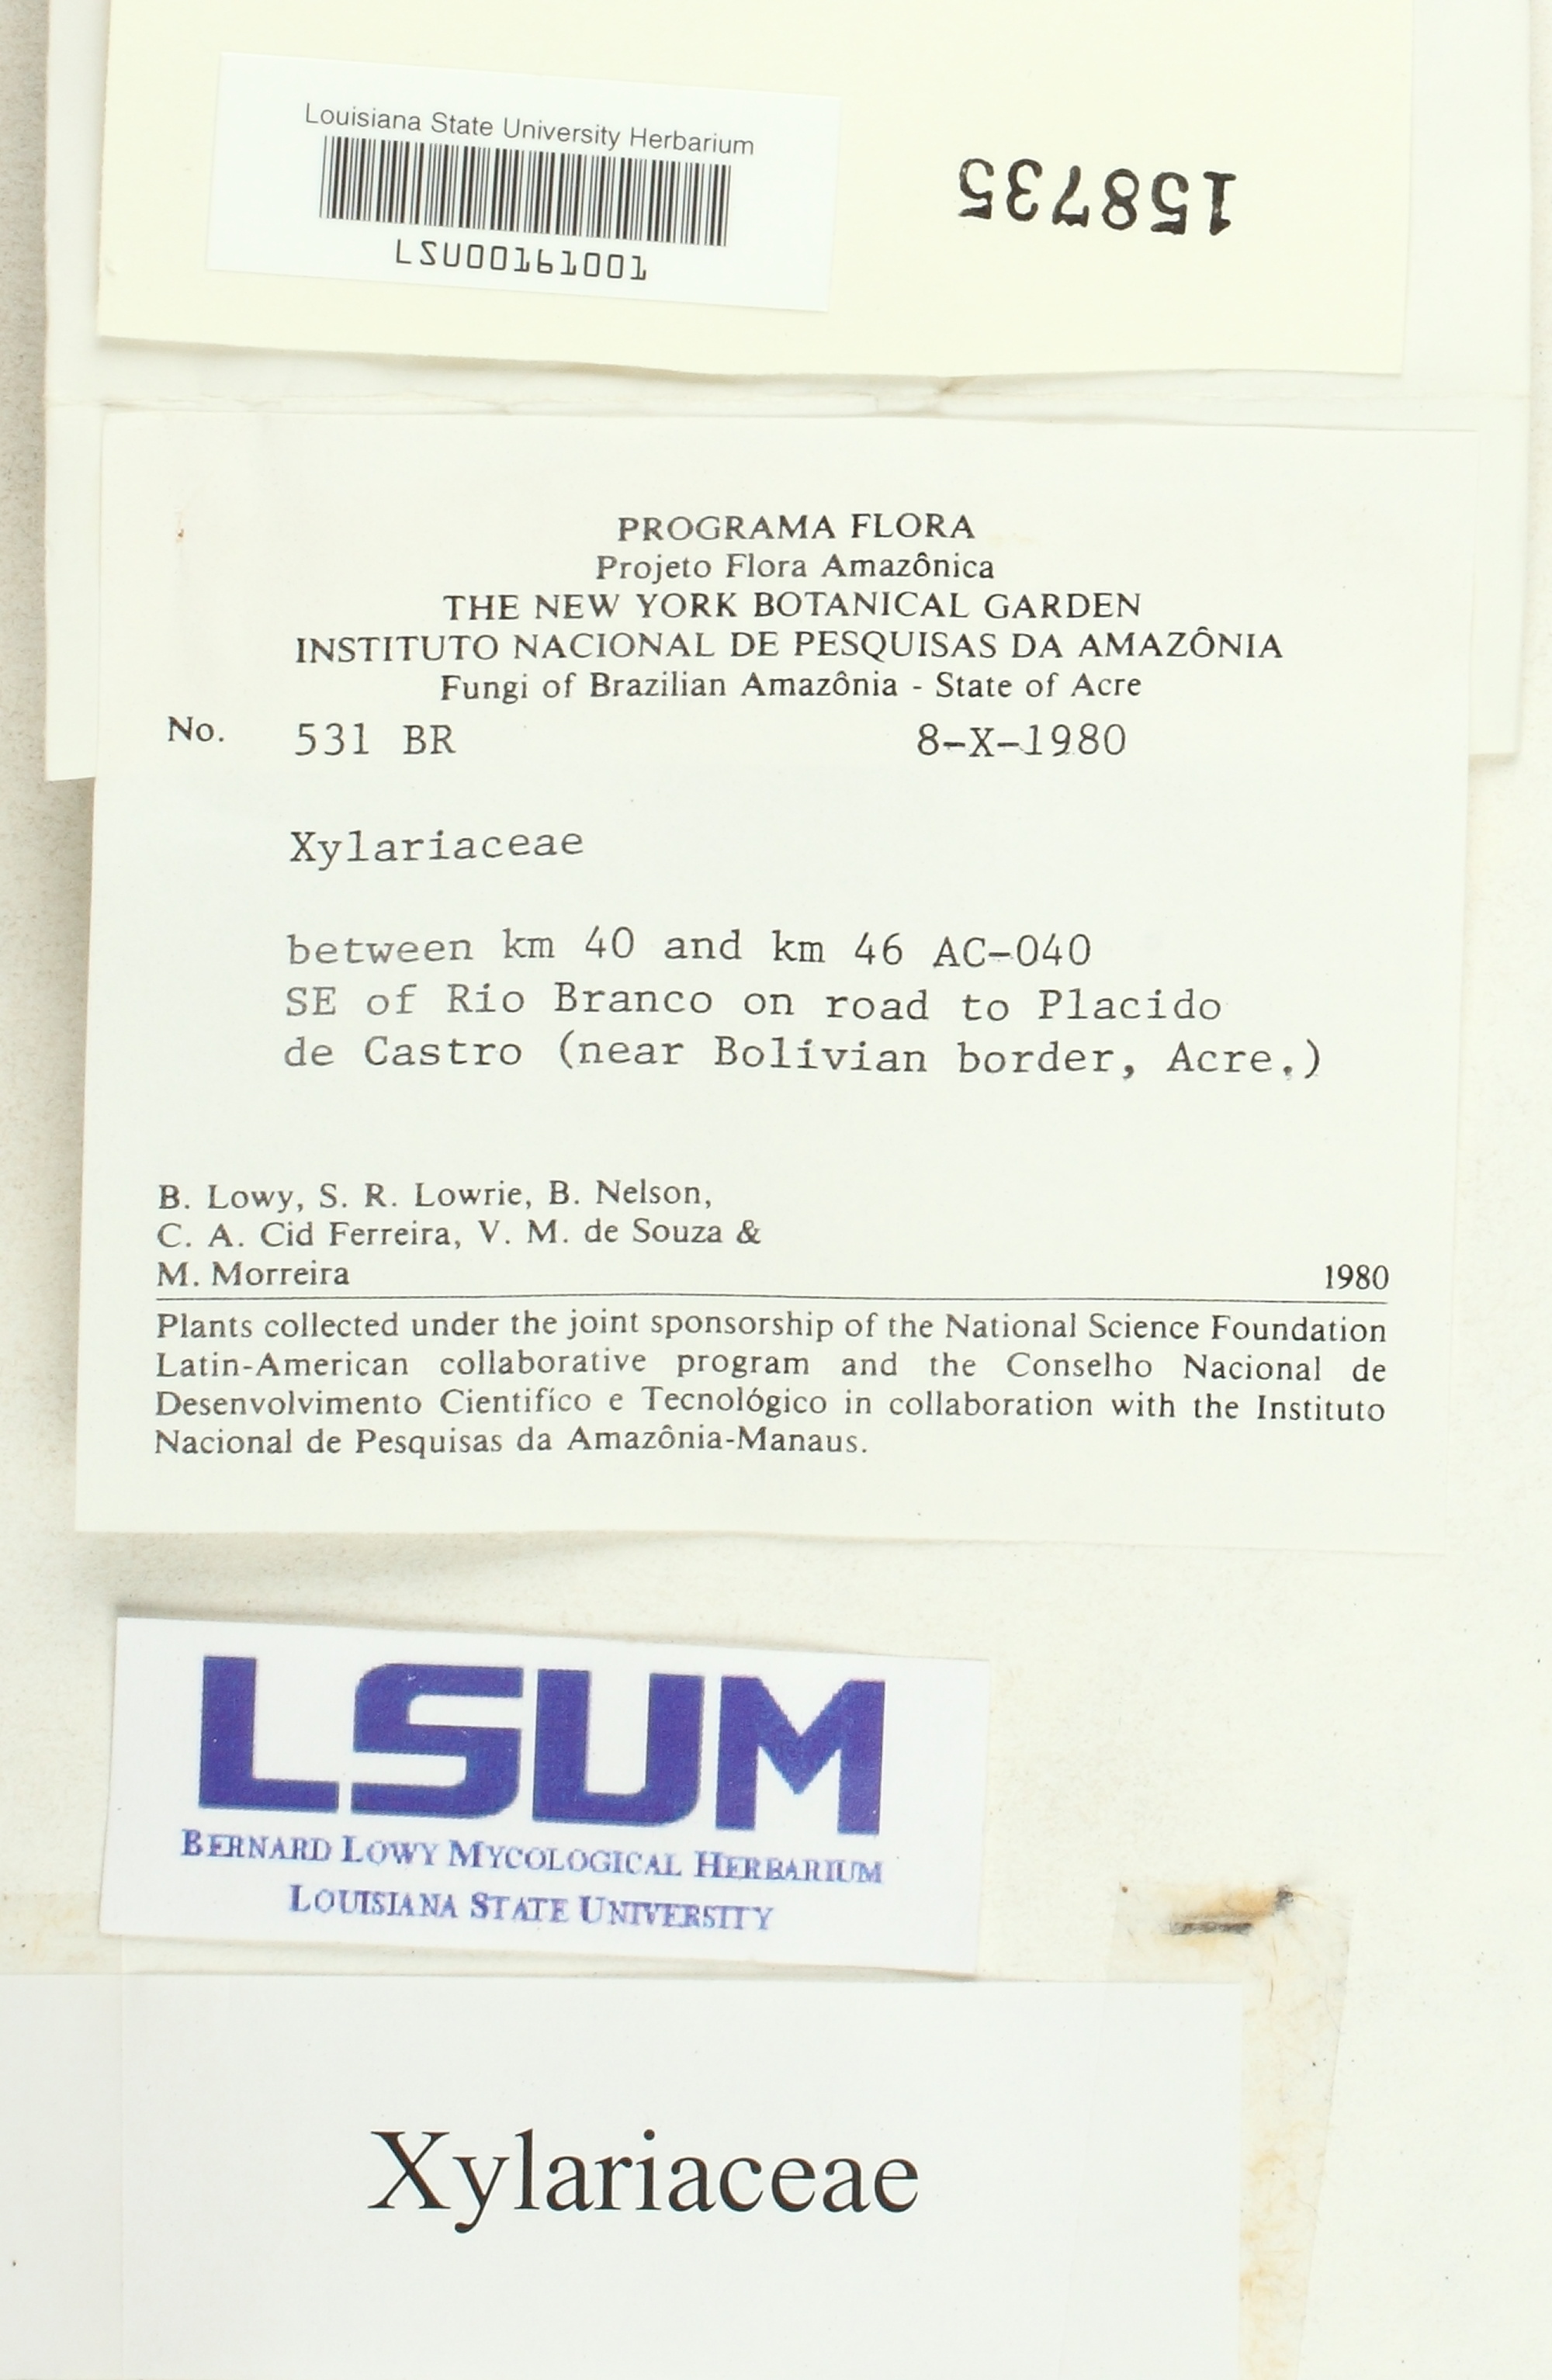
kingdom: Fungi
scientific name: Fungi
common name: Fungi
